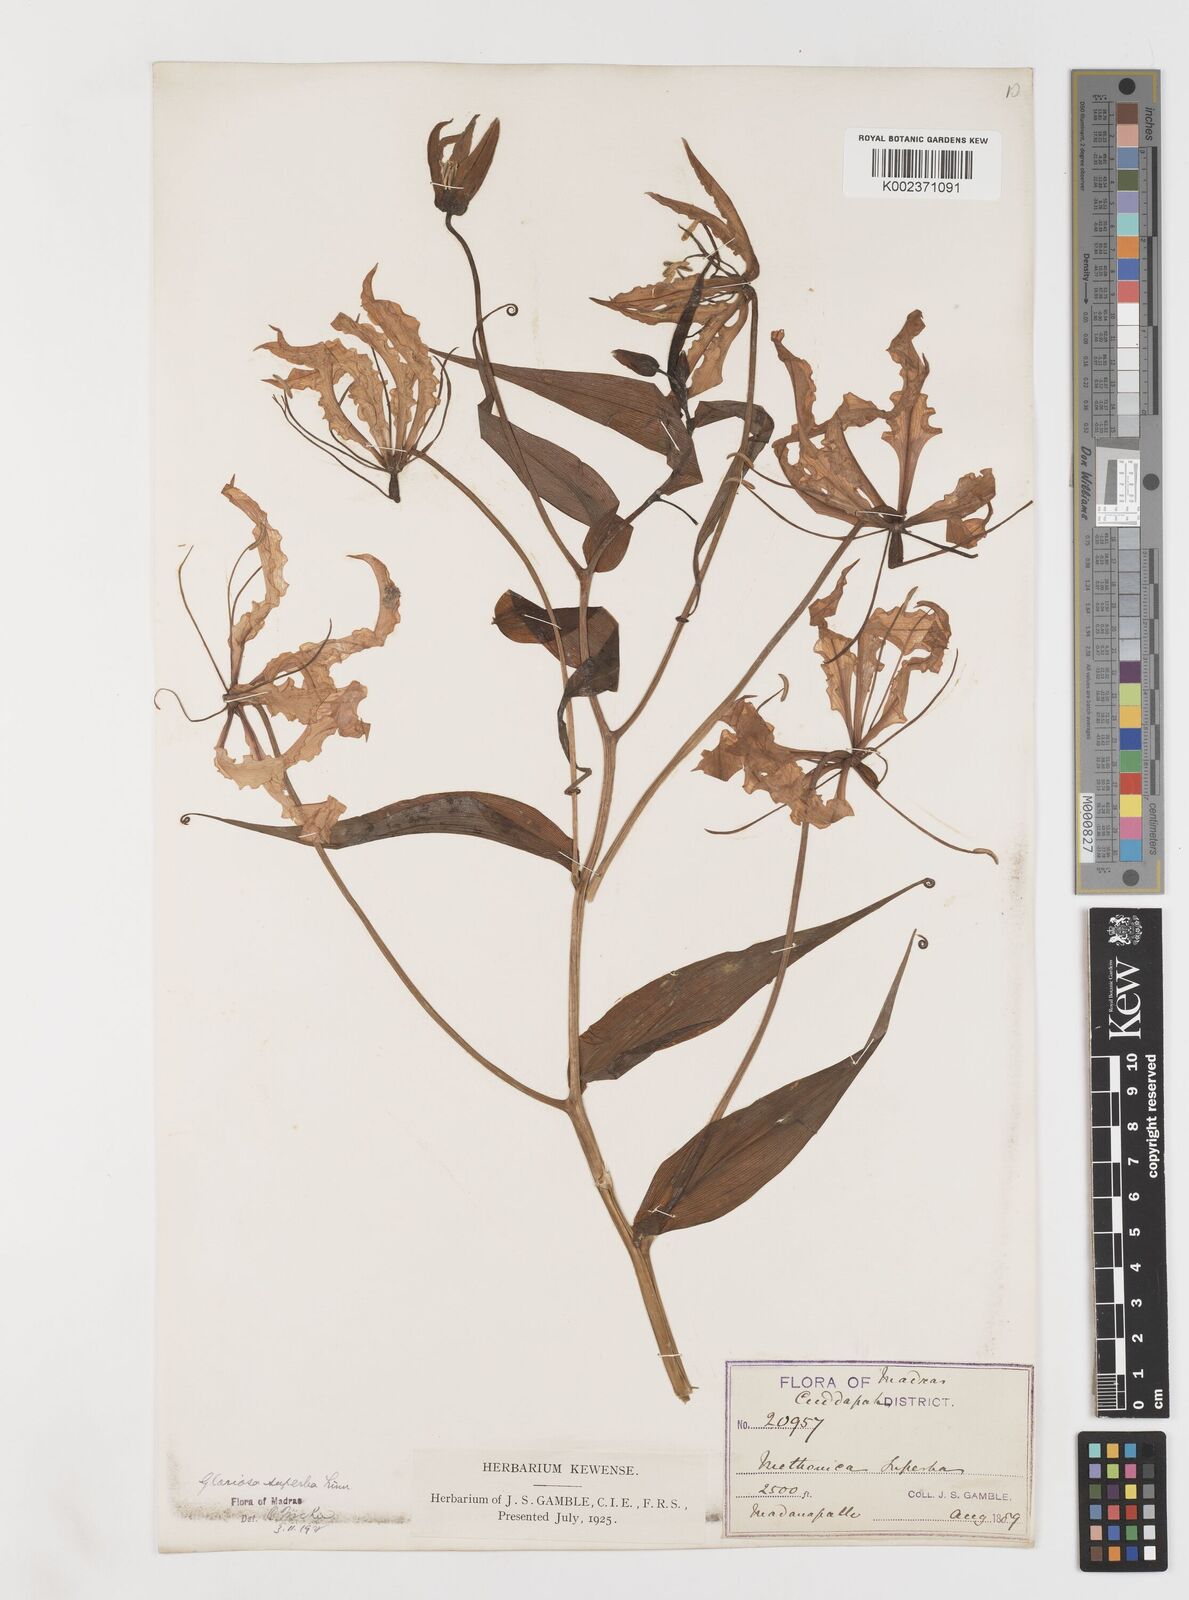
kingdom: Plantae
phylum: Tracheophyta
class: Liliopsida
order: Liliales
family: Colchicaceae
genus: Gloriosa
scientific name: Gloriosa superba
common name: Flame lily
